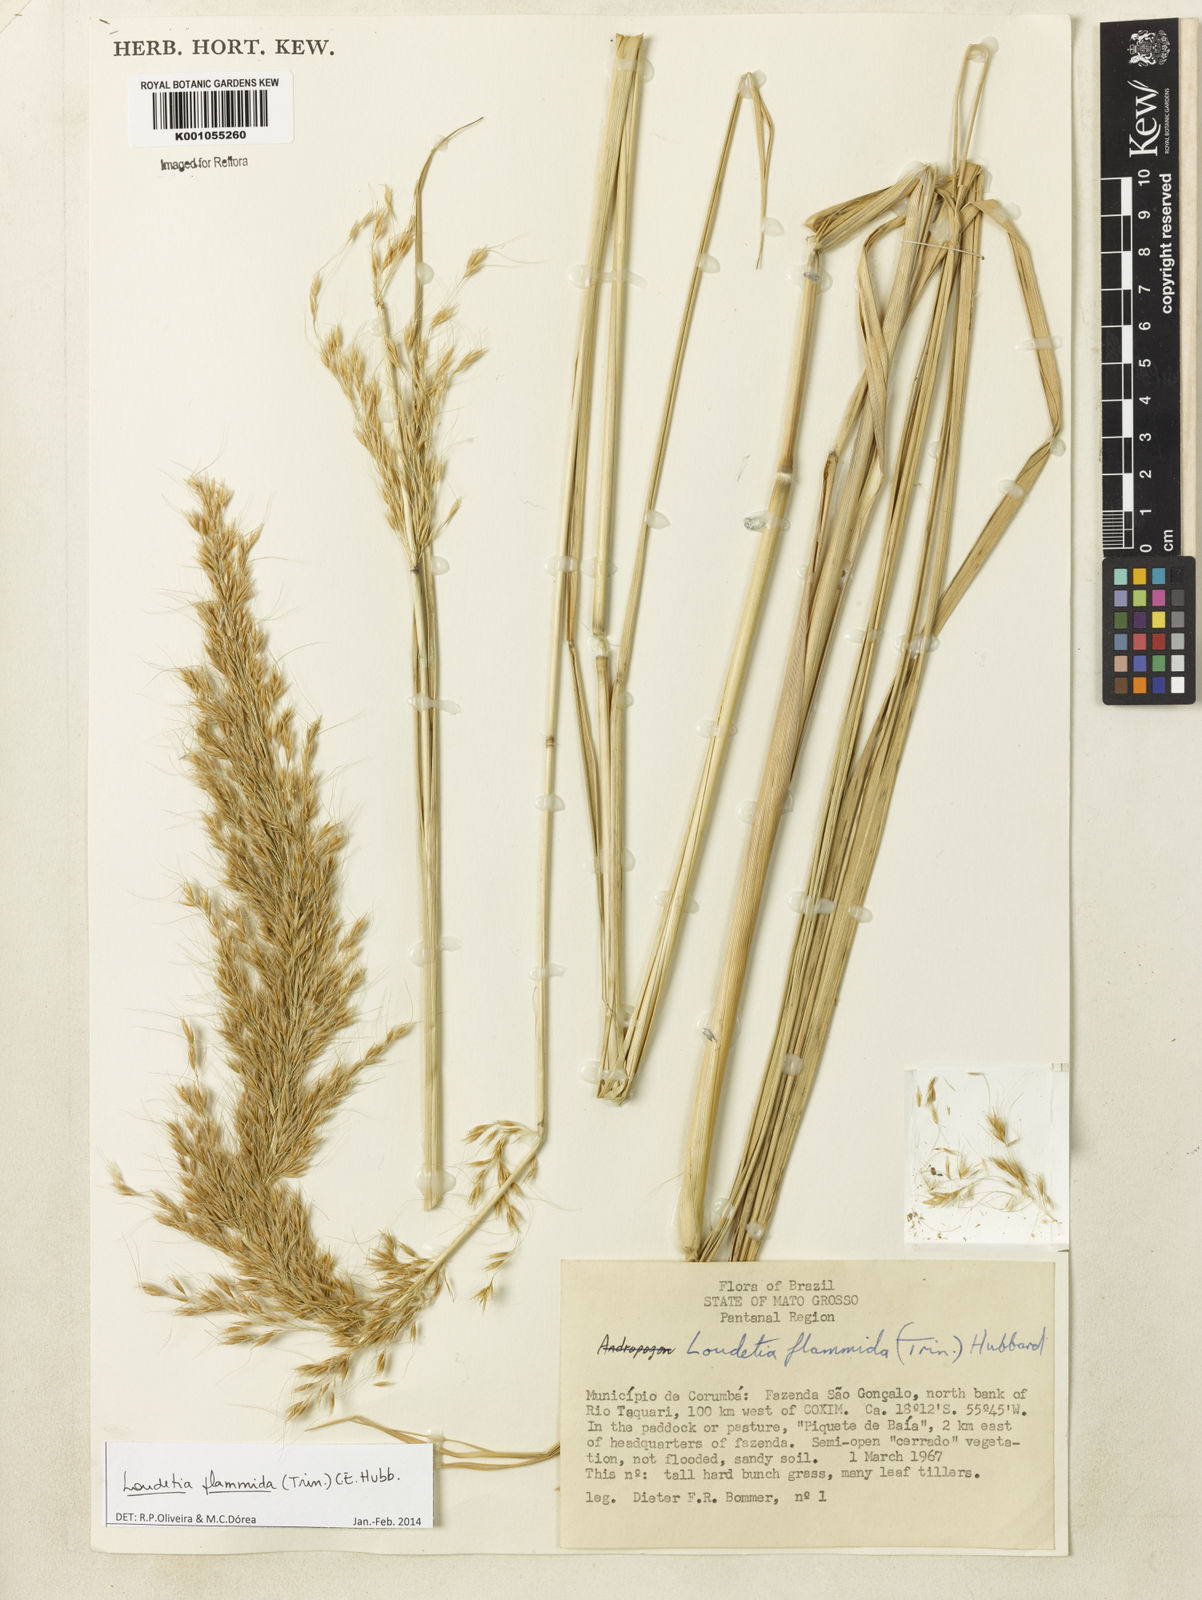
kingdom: Plantae
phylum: Tracheophyta
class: Liliopsida
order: Poales
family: Poaceae
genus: Loudetia
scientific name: Loudetia flammida
